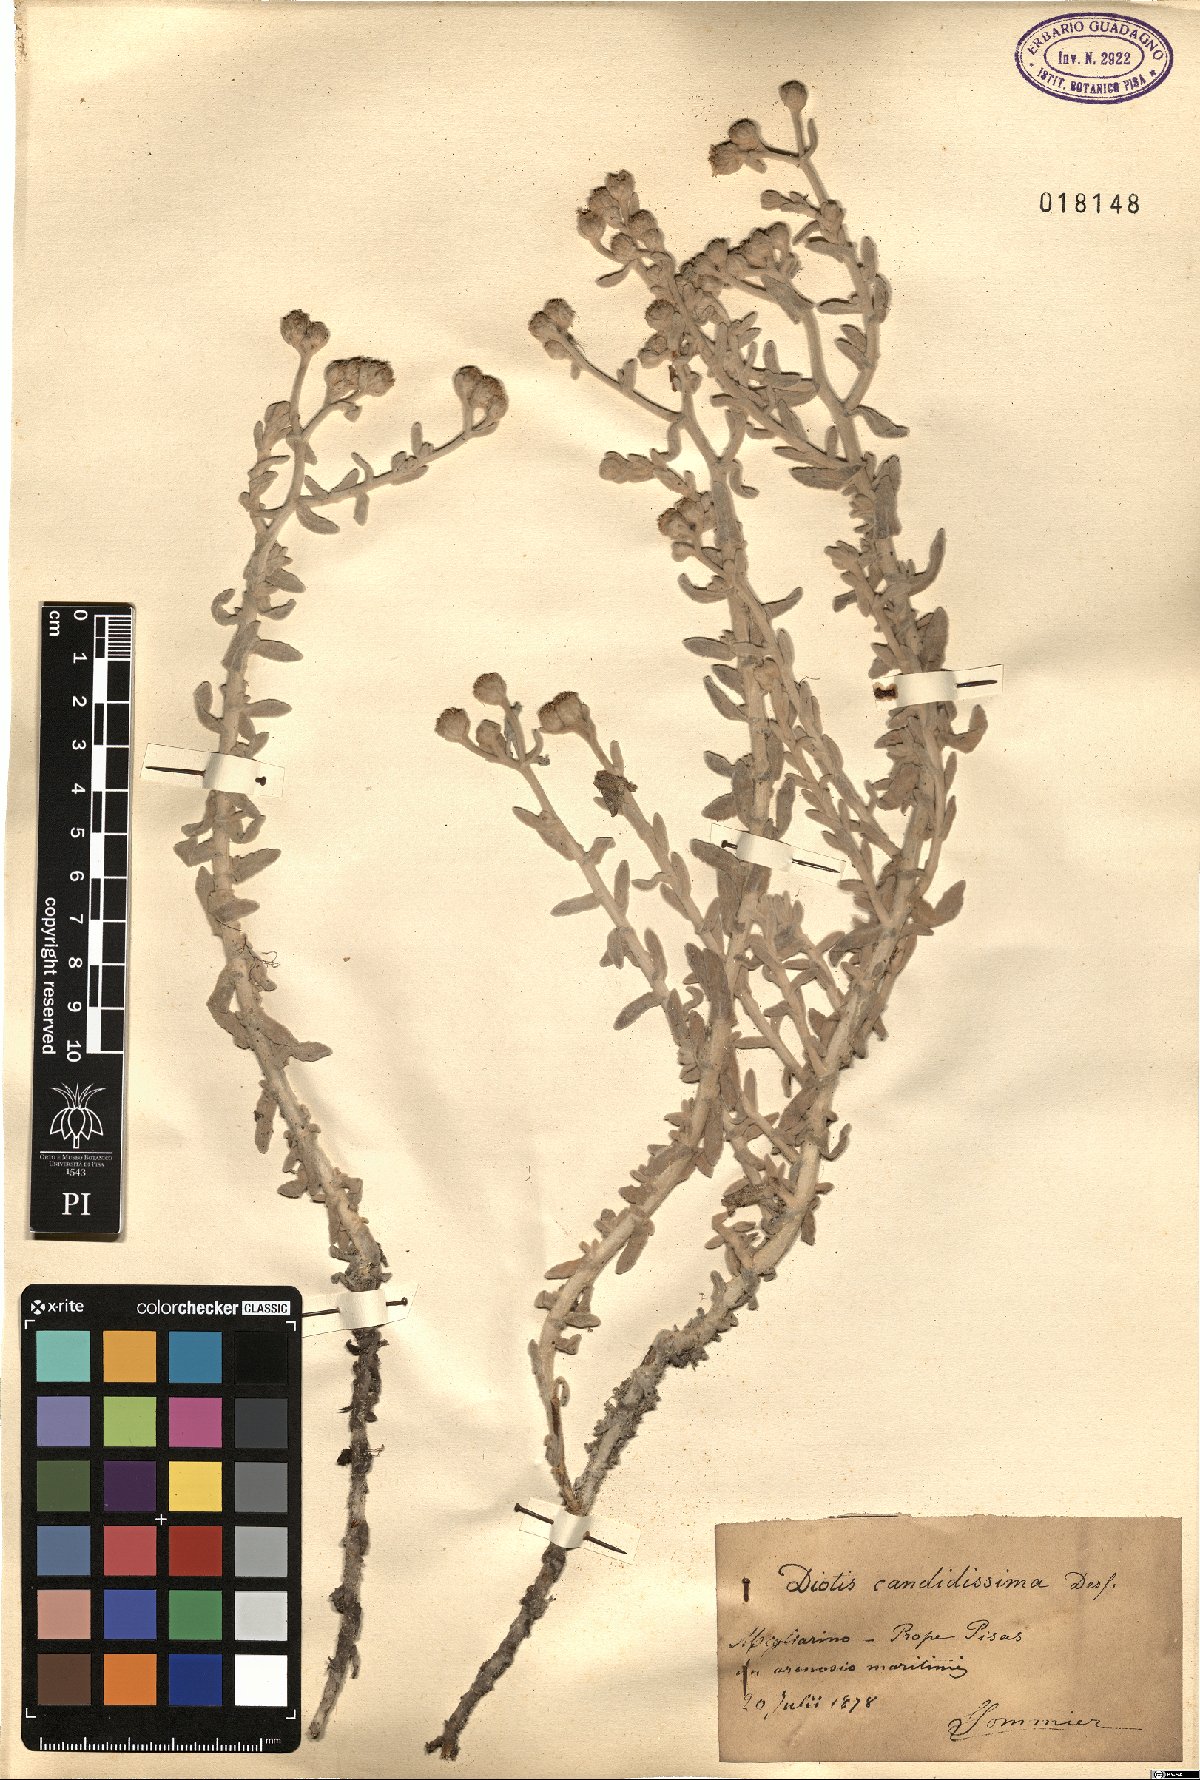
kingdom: Plantae
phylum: Tracheophyta
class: Magnoliopsida
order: Asterales
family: Asteraceae
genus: Achillea
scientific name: Achillea maritima
